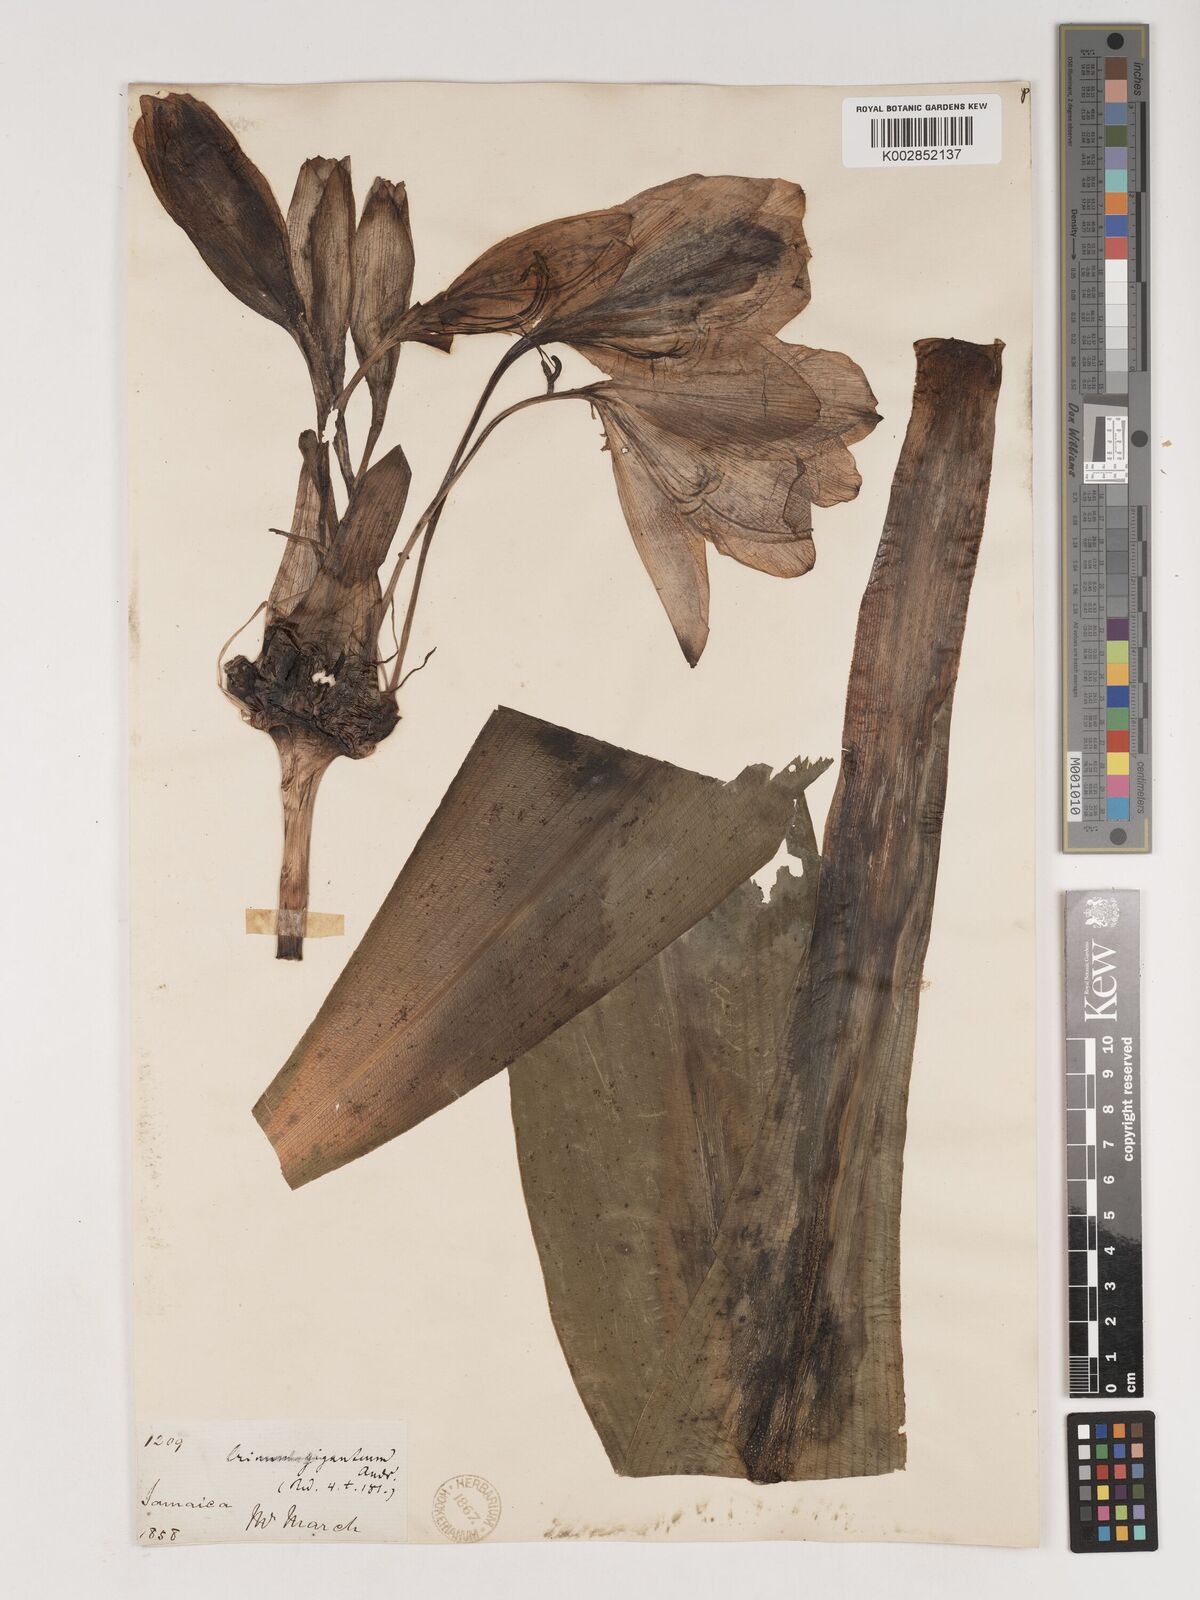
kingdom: Plantae
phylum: Tracheophyta
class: Liliopsida
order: Asparagales
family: Amaryllidaceae
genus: Crinum
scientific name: Crinum jagus
